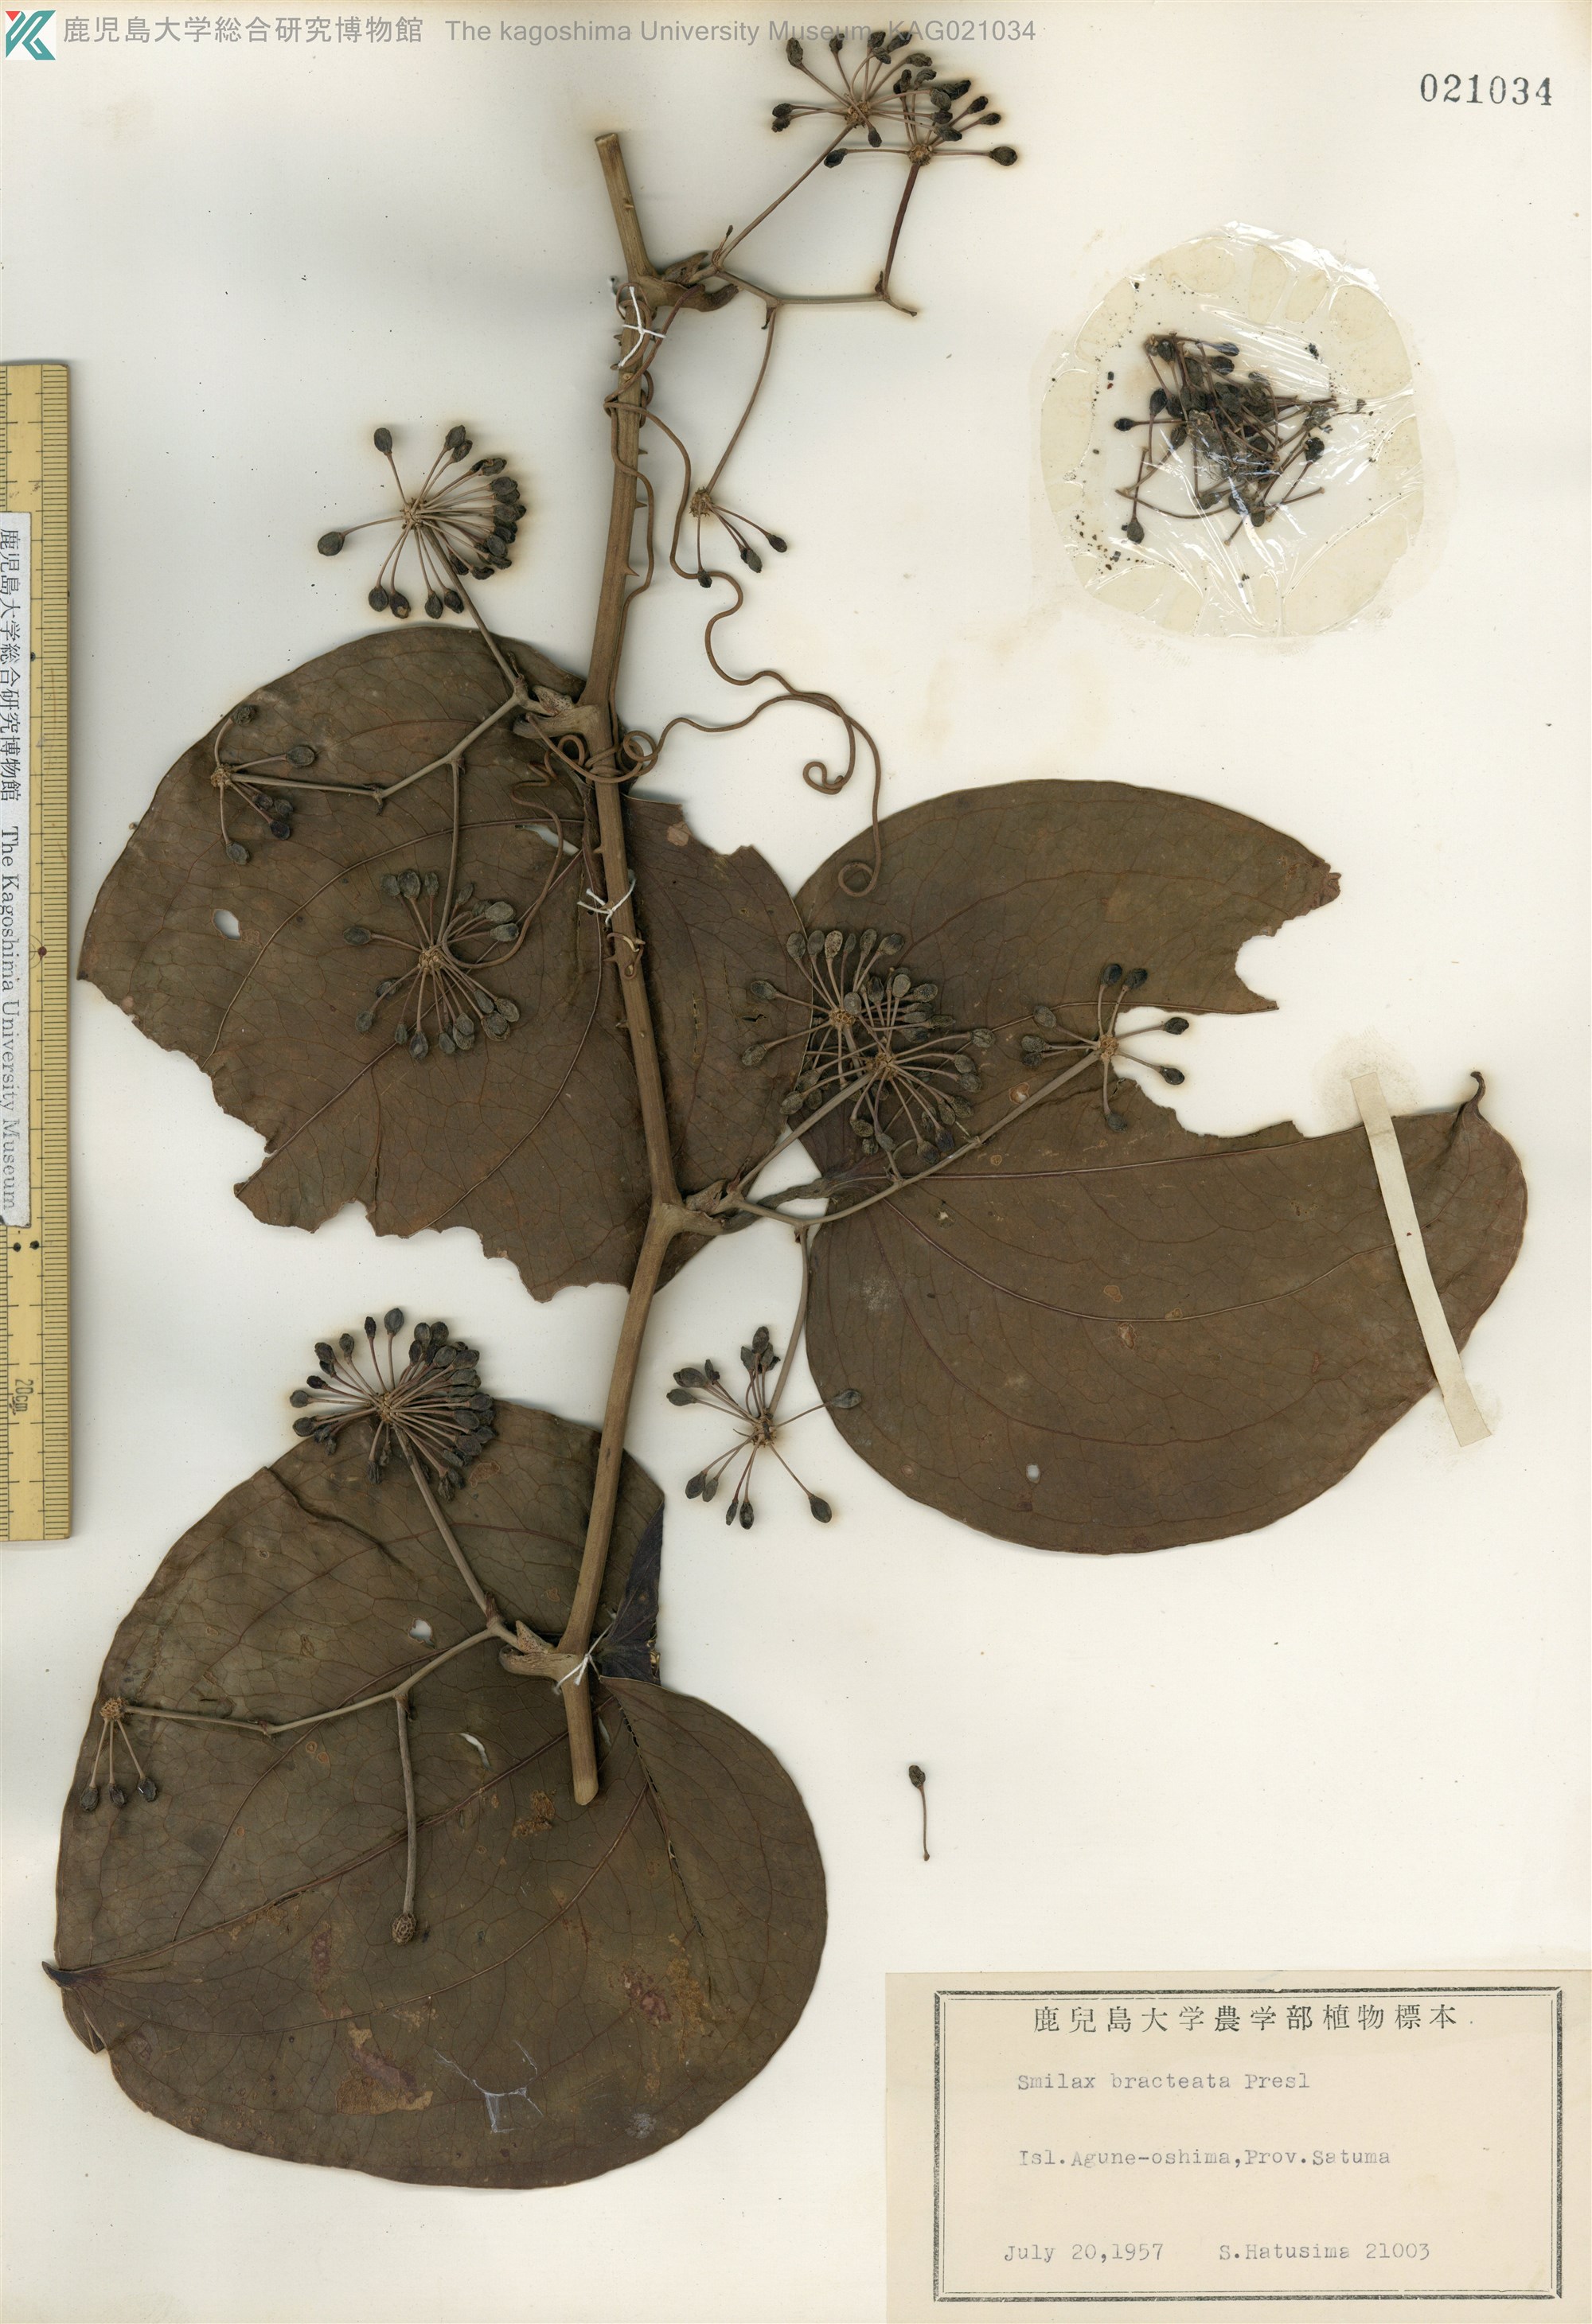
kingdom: Plantae
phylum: Tracheophyta
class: Liliopsida
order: Liliales
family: Smilacaceae
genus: Smilax
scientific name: Smilax bracteata
